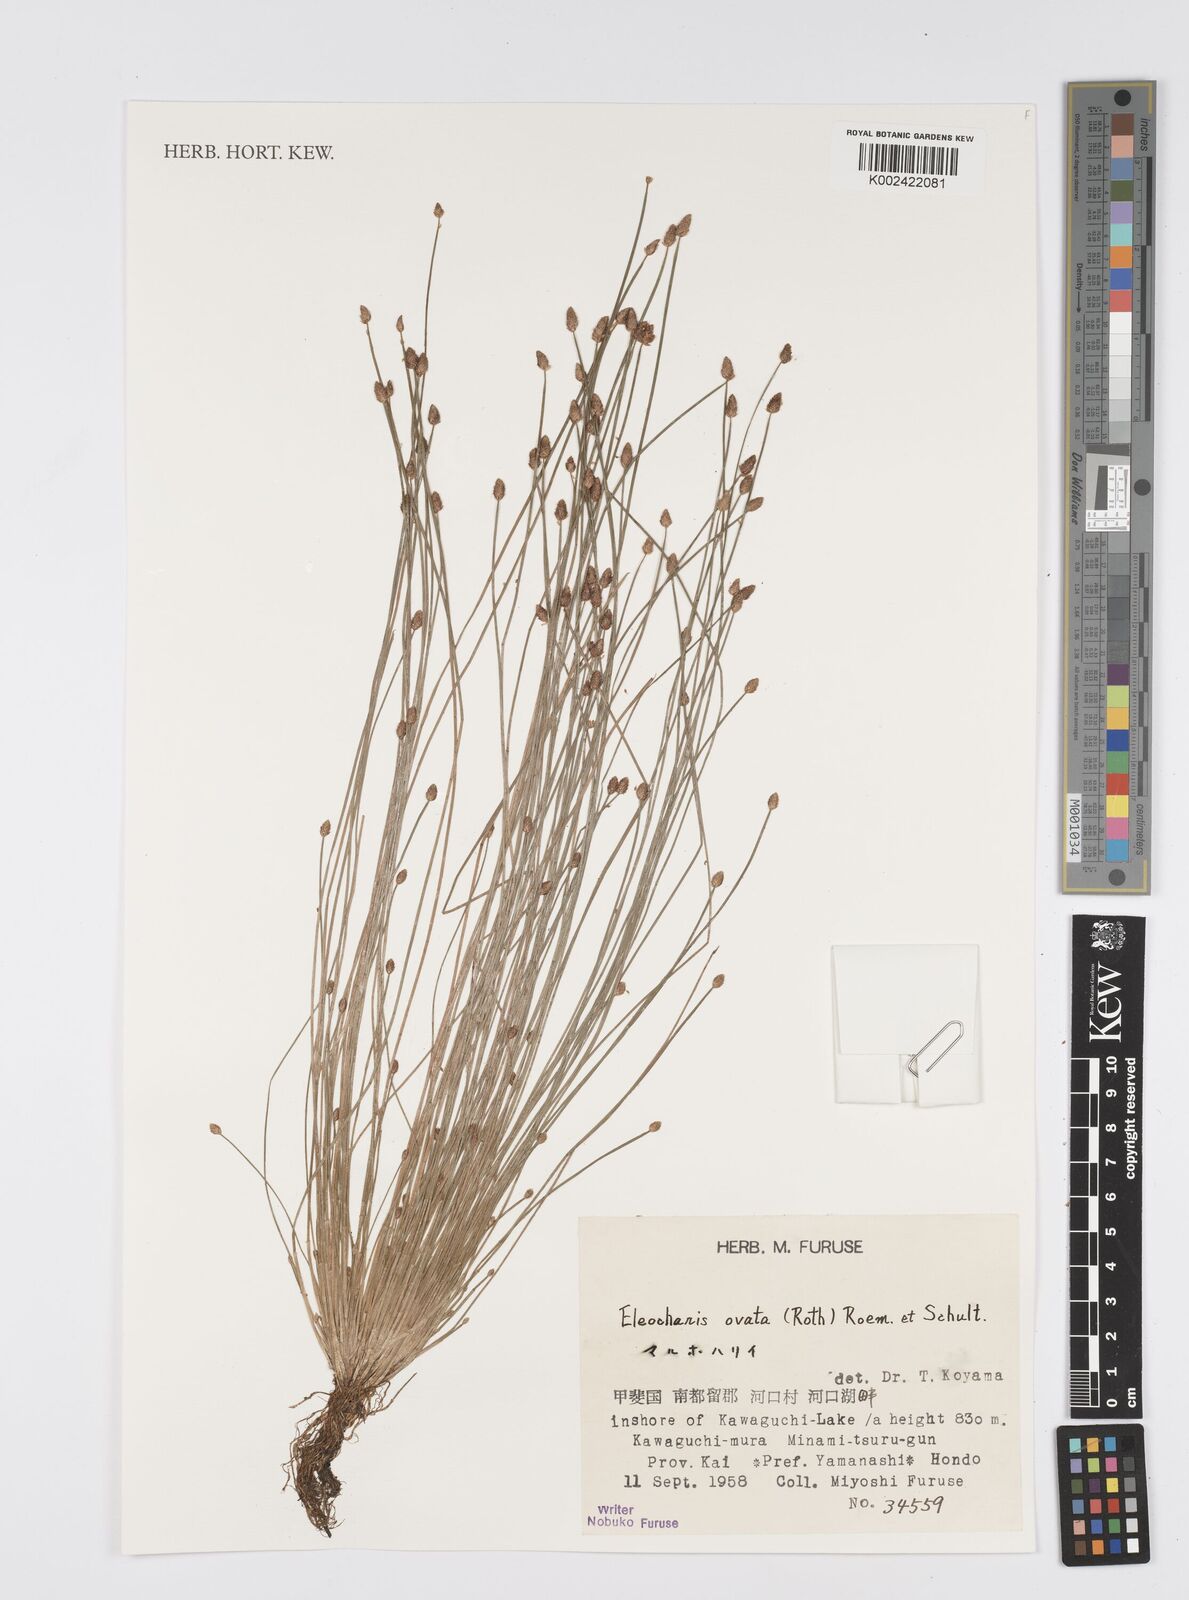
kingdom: Plantae
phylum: Tracheophyta
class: Liliopsida
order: Poales
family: Cyperaceae
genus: Eleocharis
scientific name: Eleocharis ovata
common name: Oval spike-rush
